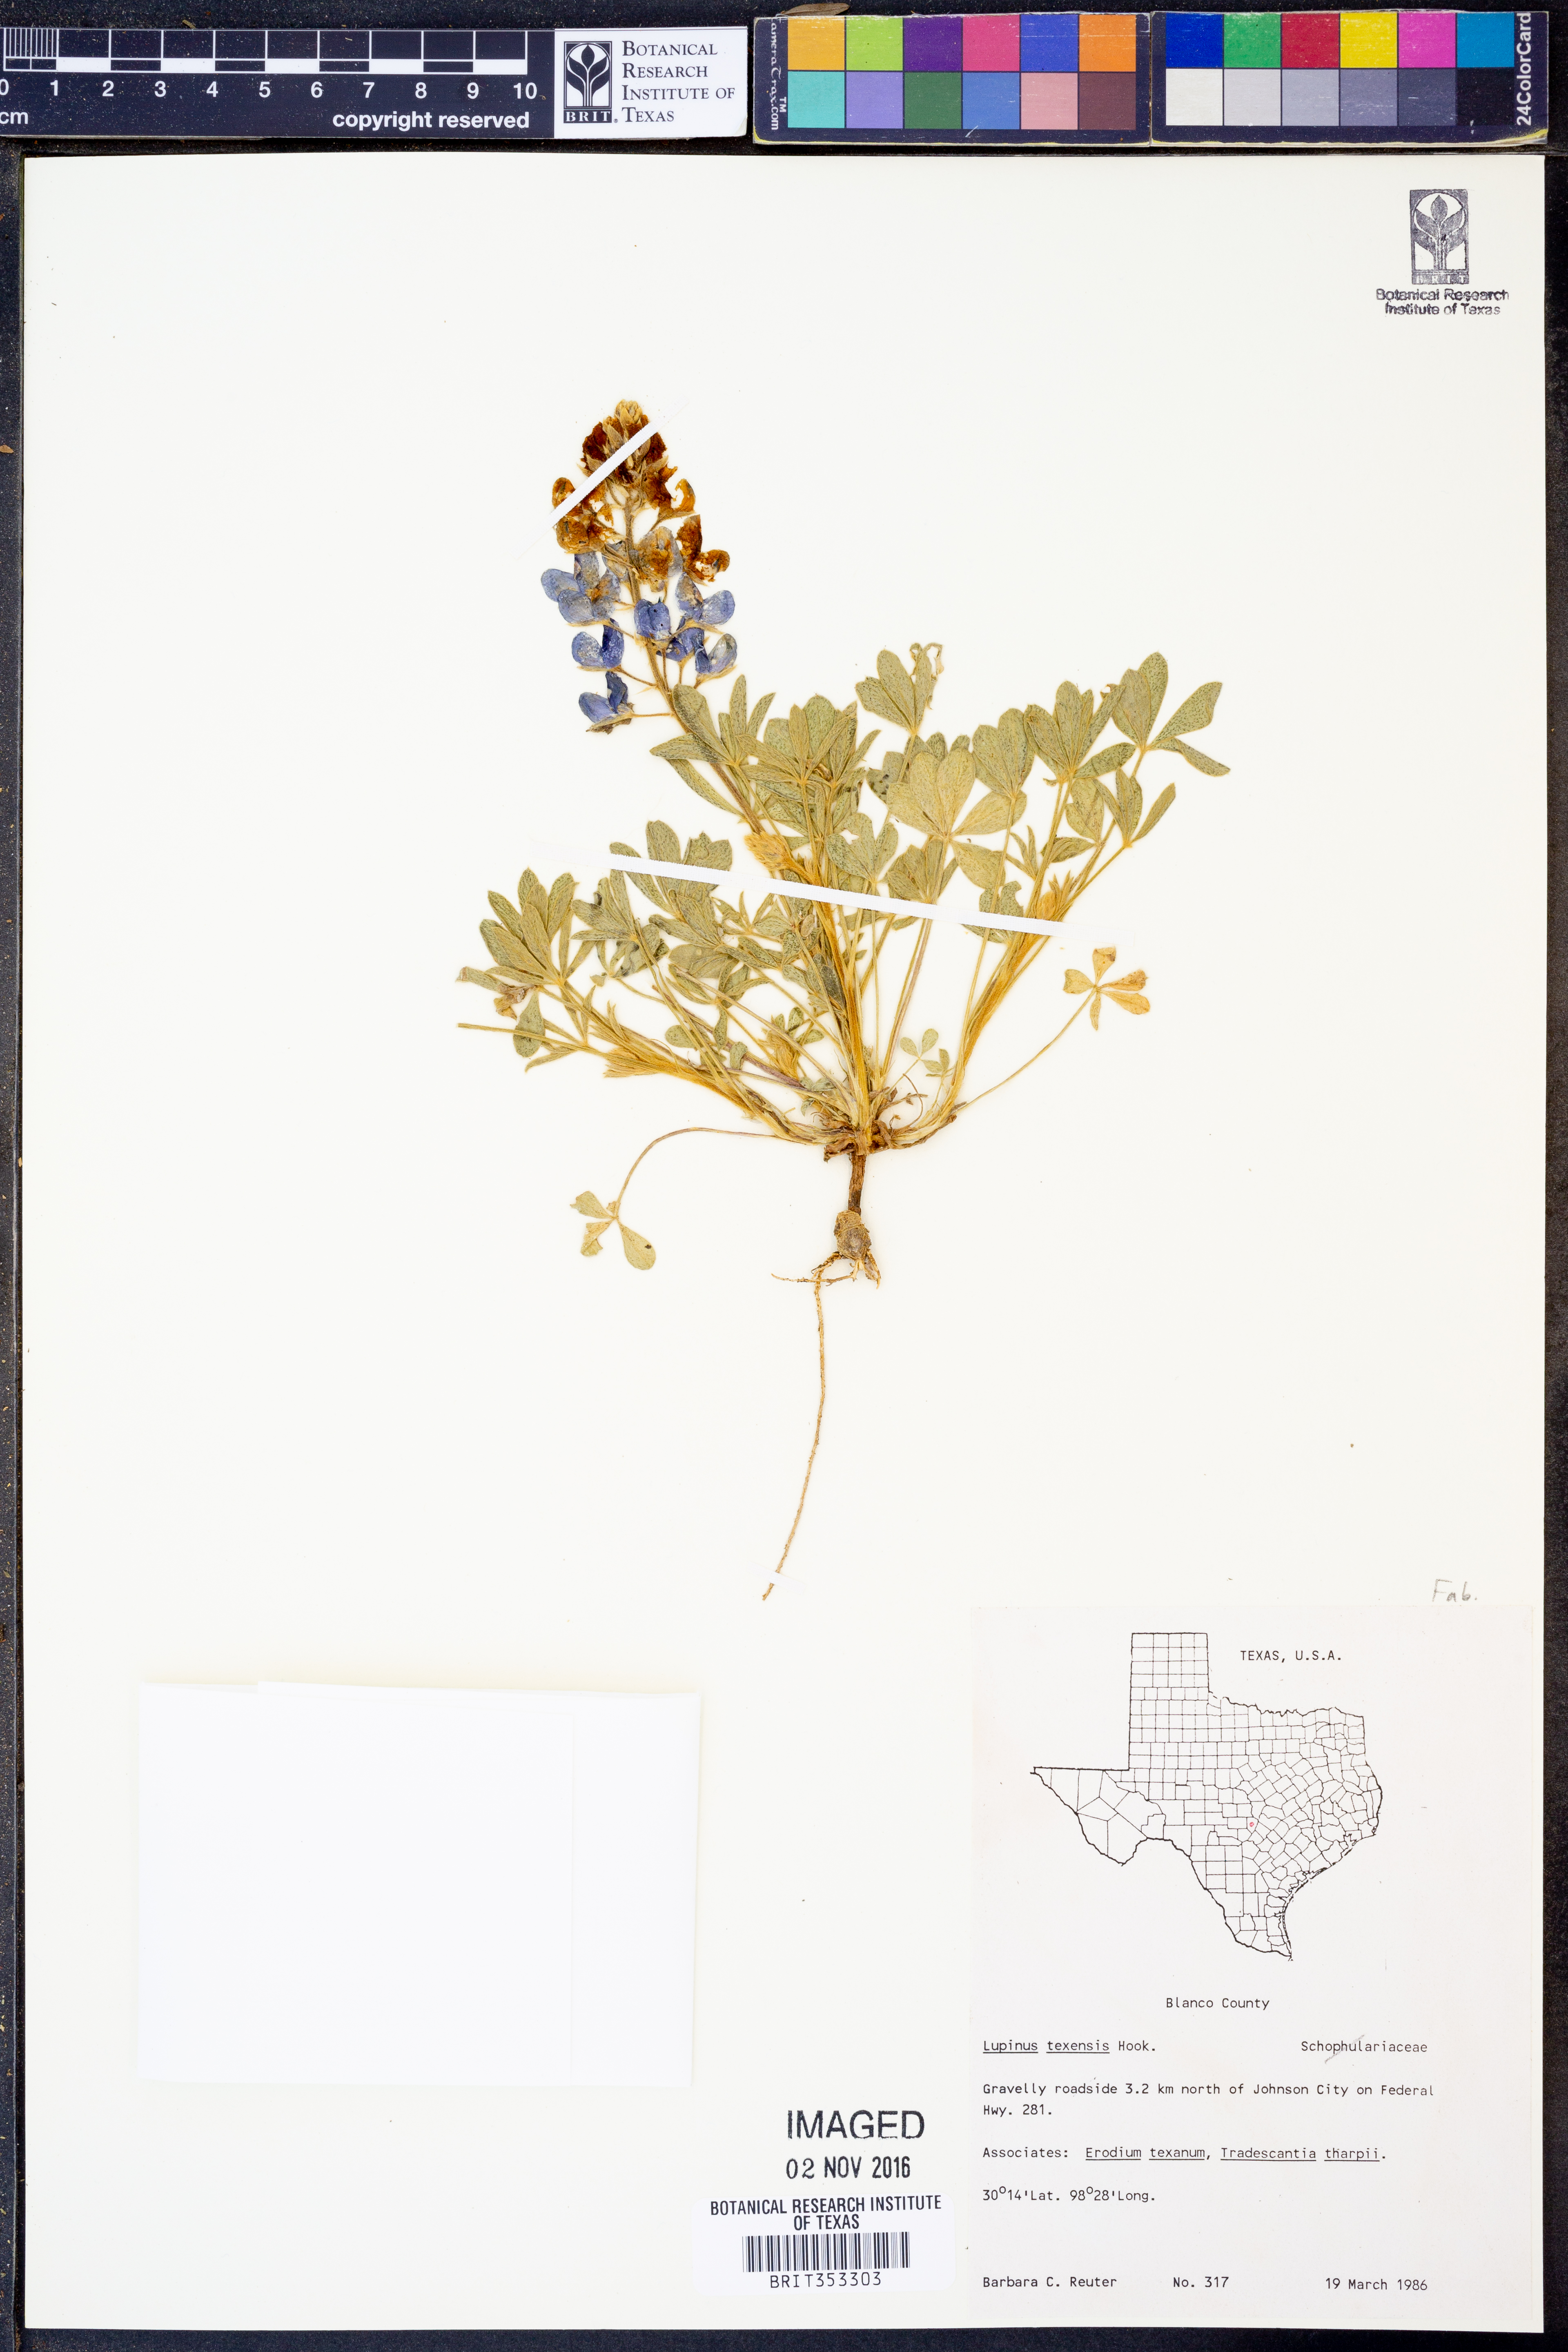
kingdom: Plantae
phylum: Tracheophyta
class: Magnoliopsida
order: Fabales
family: Fabaceae
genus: Lupinus
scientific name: Lupinus texensis
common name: Texas bluebonnet
